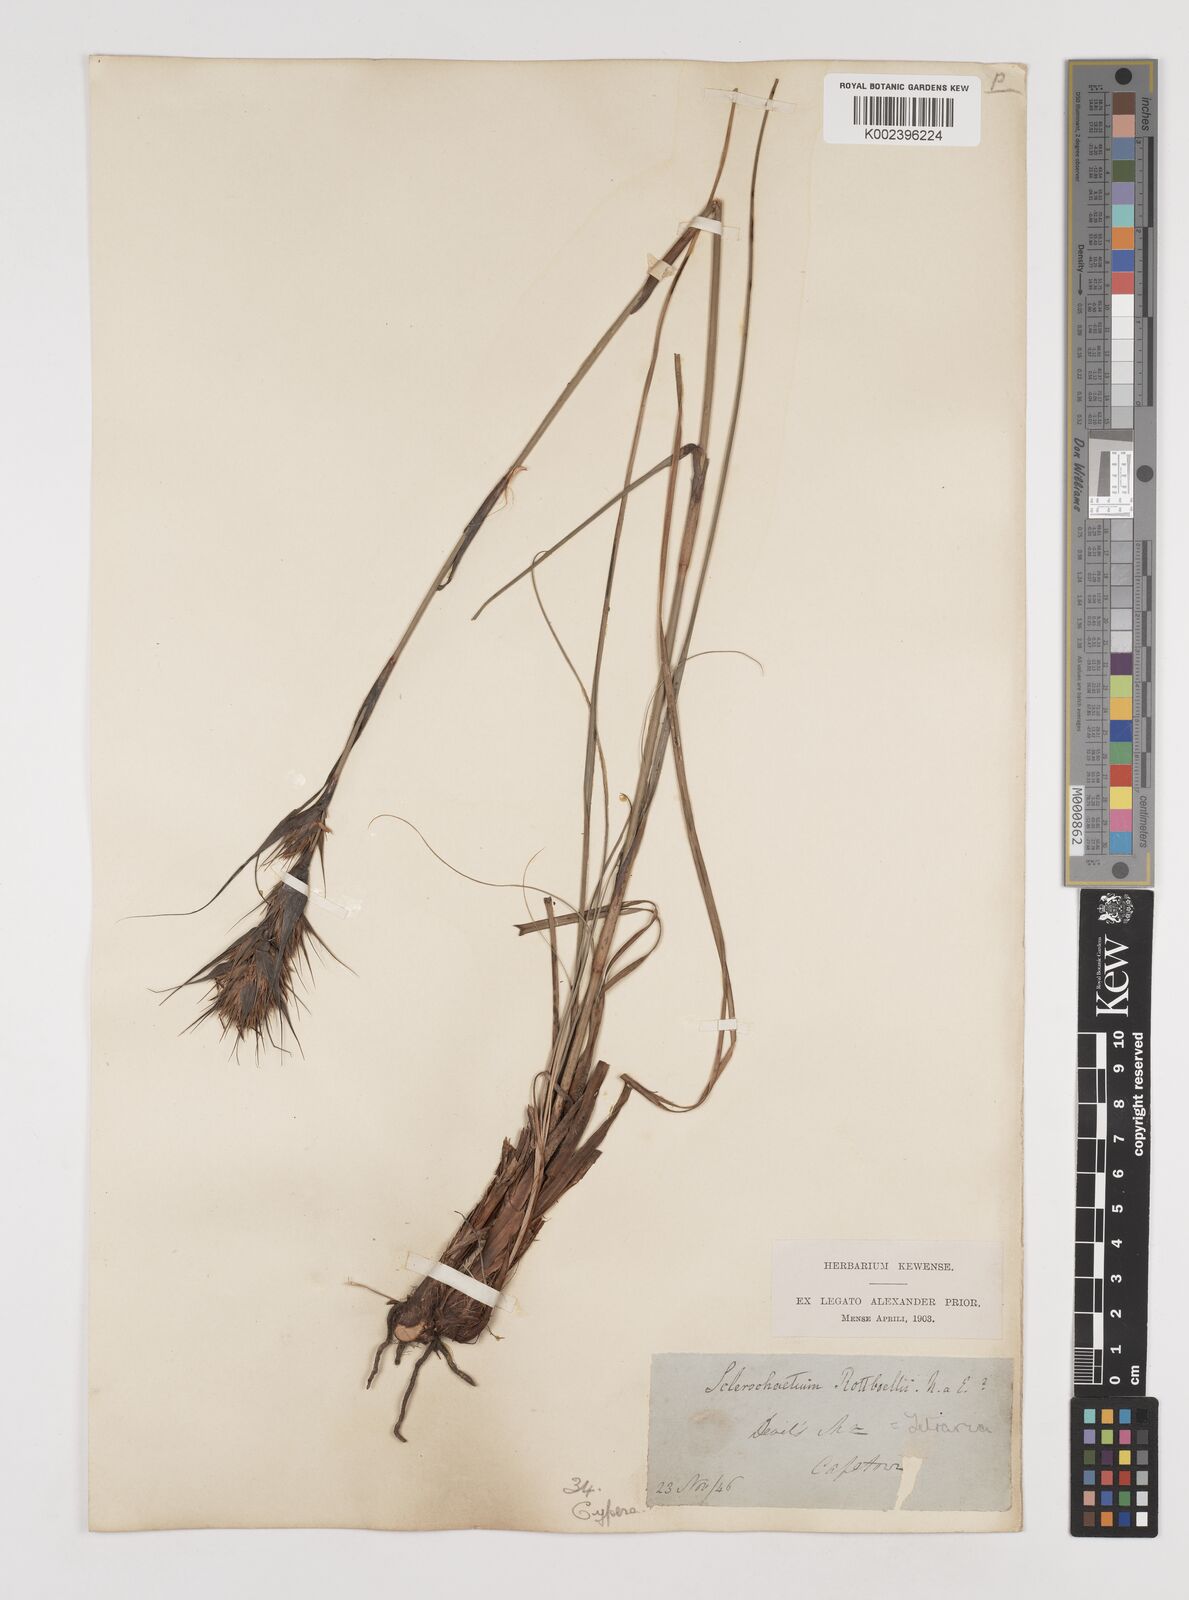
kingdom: Plantae
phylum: Tracheophyta
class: Liliopsida
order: Poales
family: Cyperaceae
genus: Tetraria
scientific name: Tetraria bromoides
